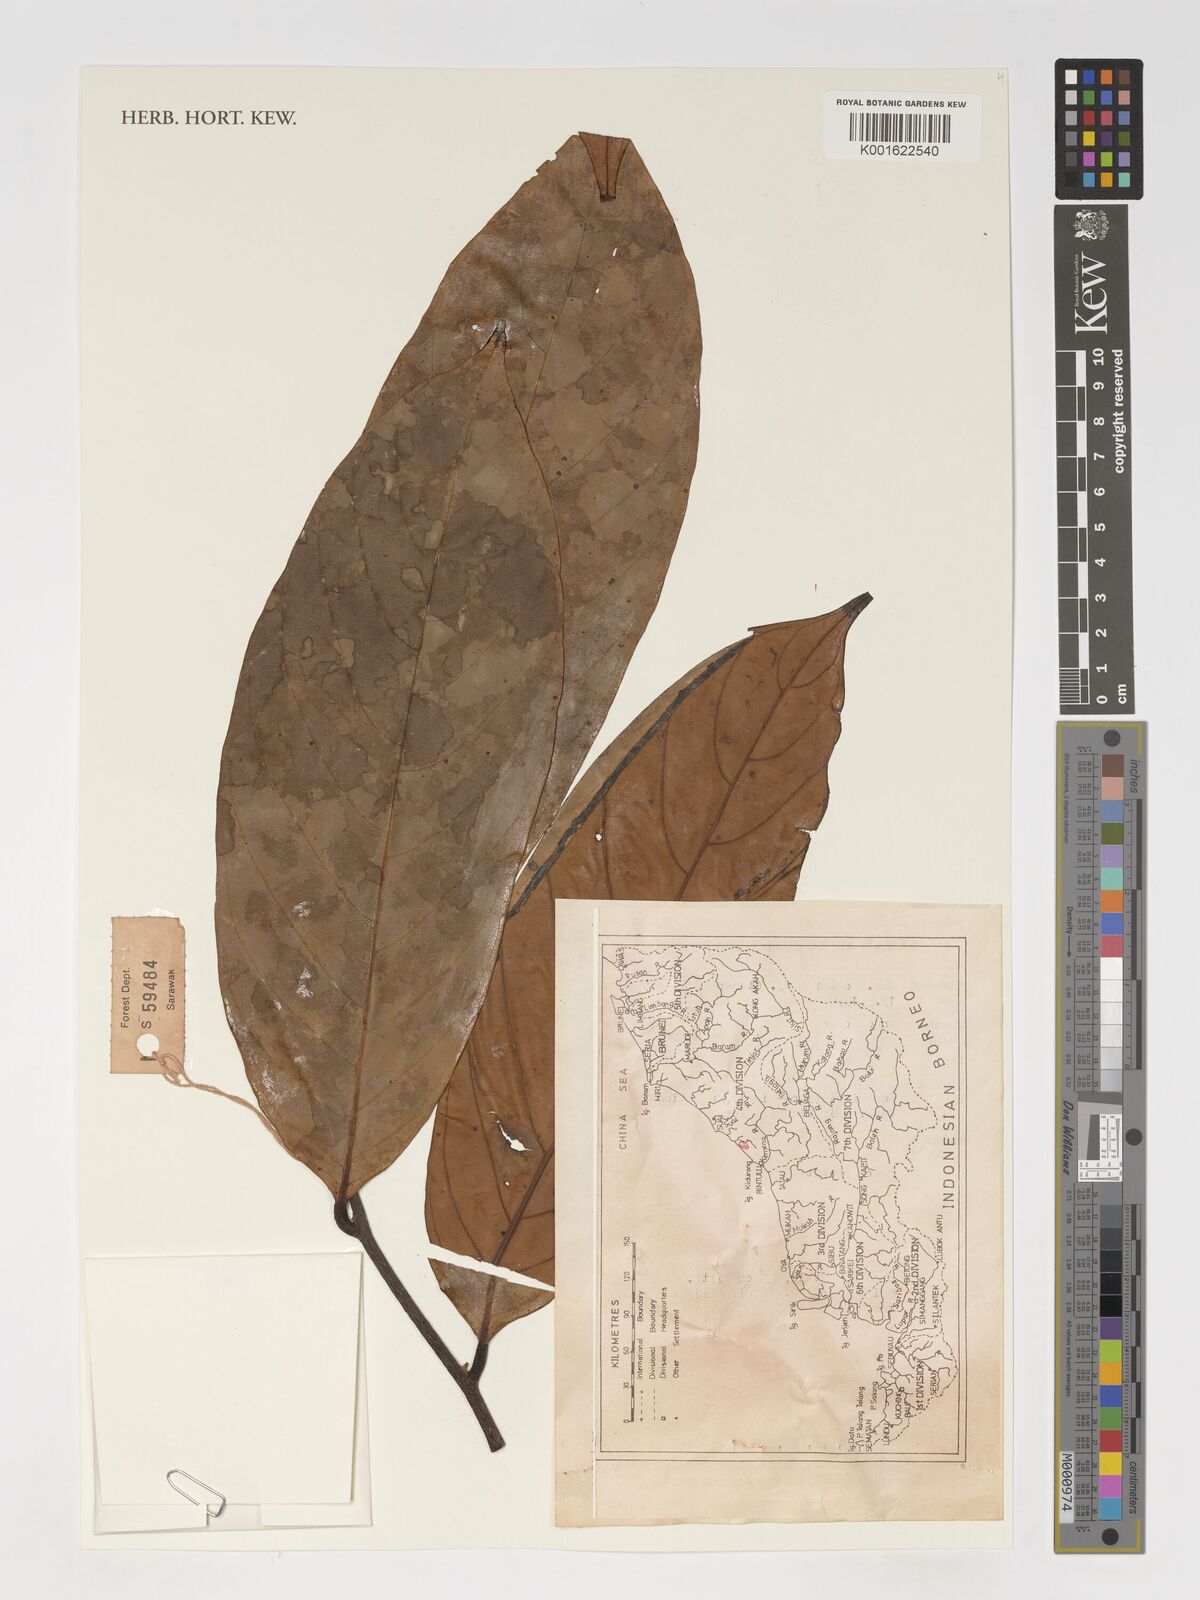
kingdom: Plantae
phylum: Tracheophyta
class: Magnoliopsida
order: Magnoliales
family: Annonaceae
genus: Monoon
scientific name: Monoon
